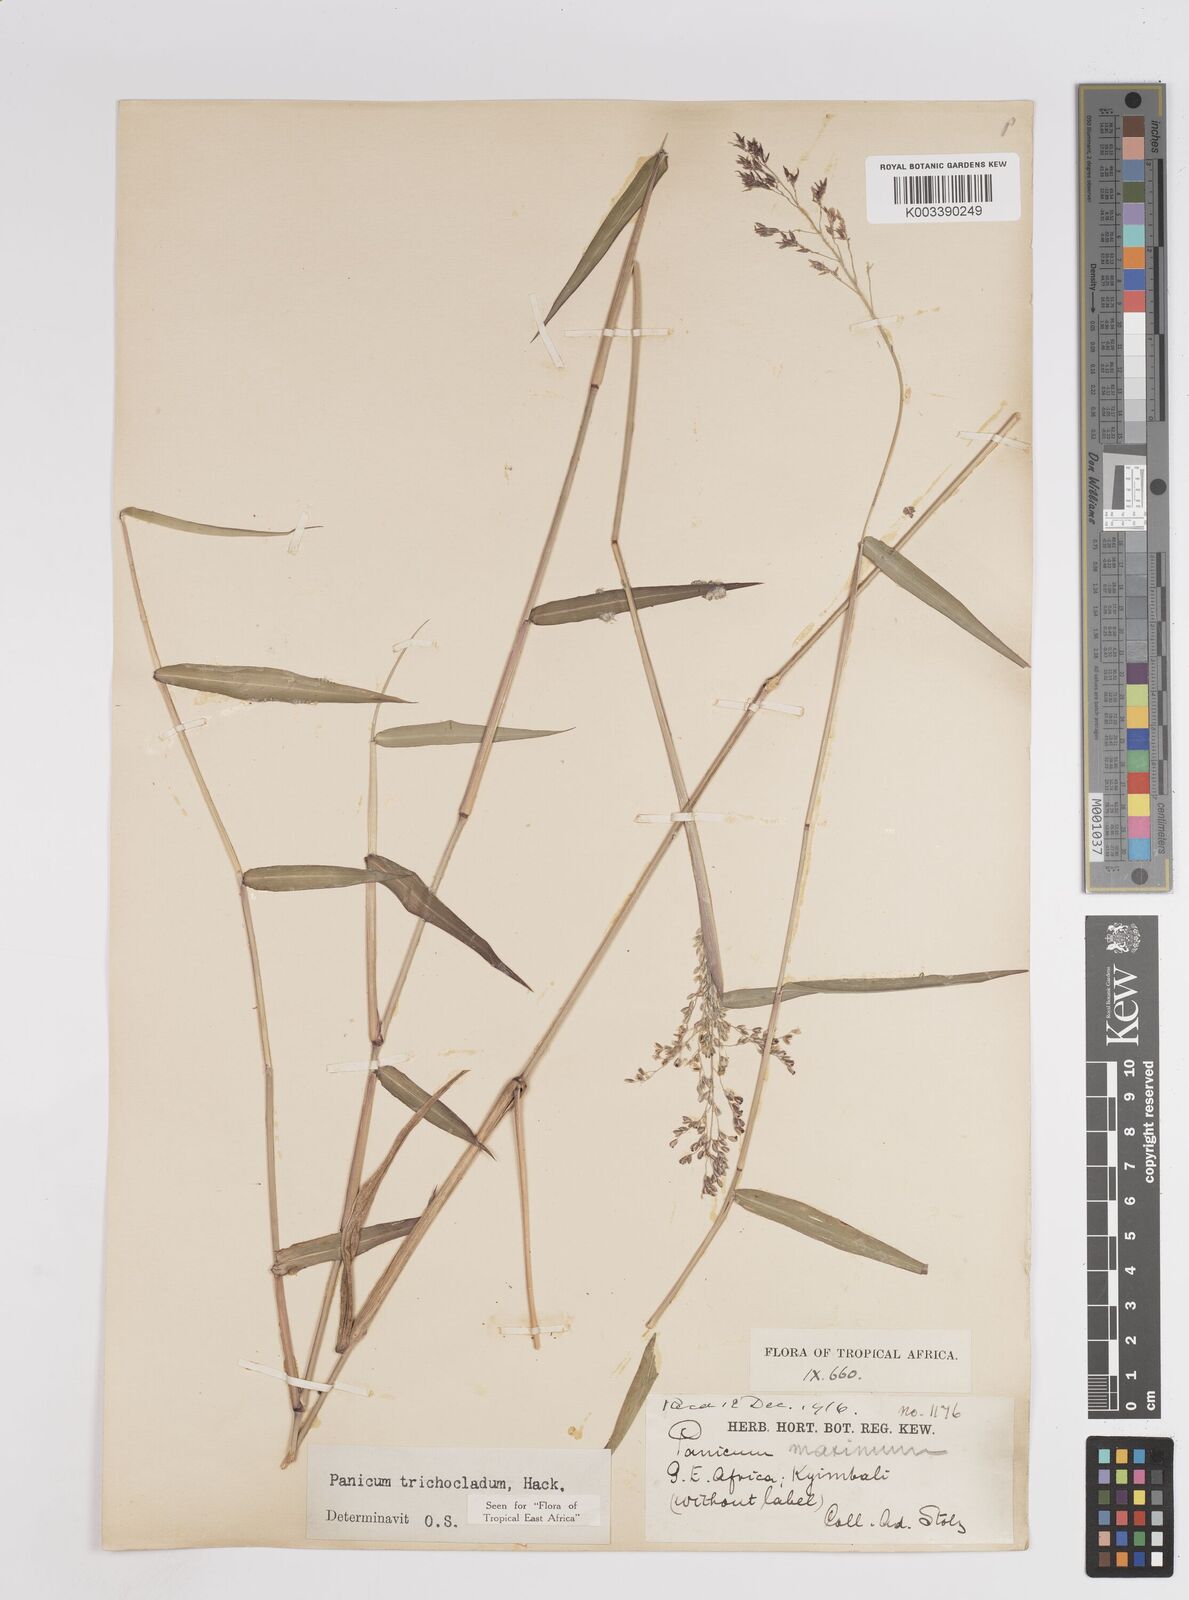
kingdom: Plantae
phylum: Tracheophyta
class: Liliopsida
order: Poales
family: Poaceae
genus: Panicum
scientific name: Panicum trichocladum
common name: Donkey grass
